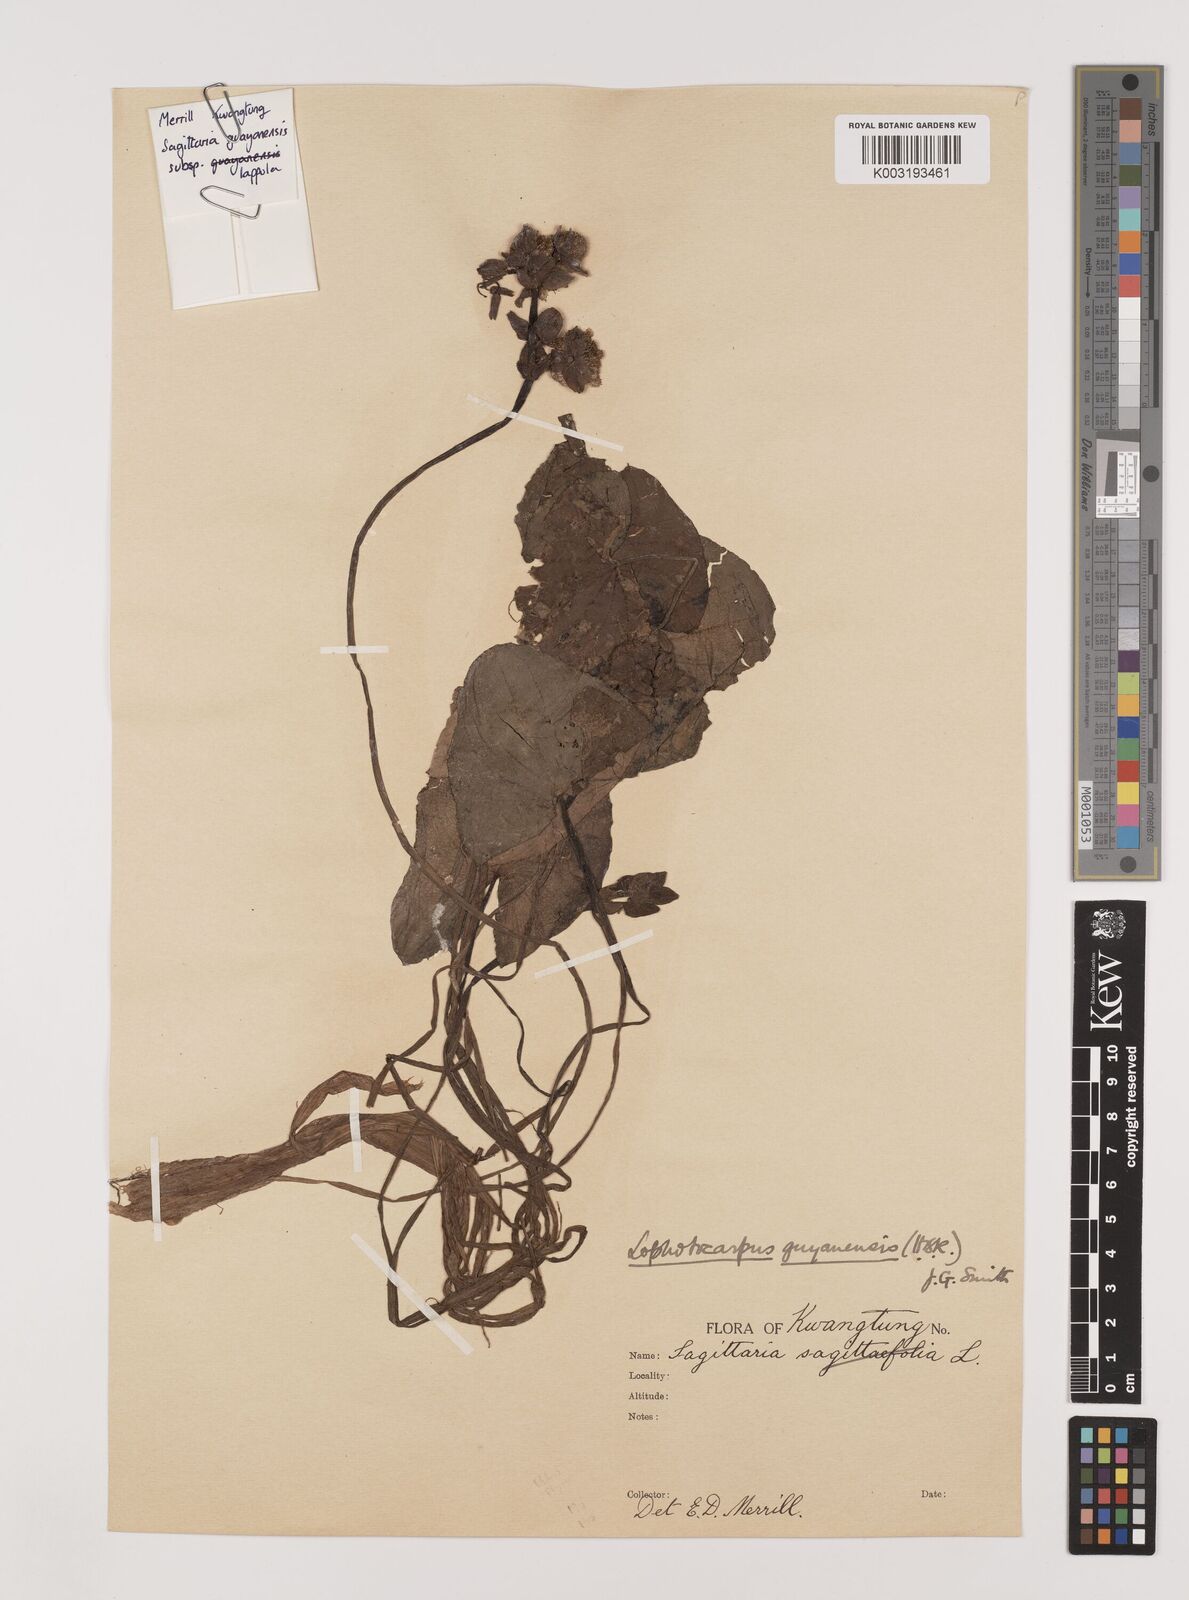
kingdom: Plantae
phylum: Tracheophyta
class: Liliopsida
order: Alismatales
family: Alismataceae
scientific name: Alismataceae
